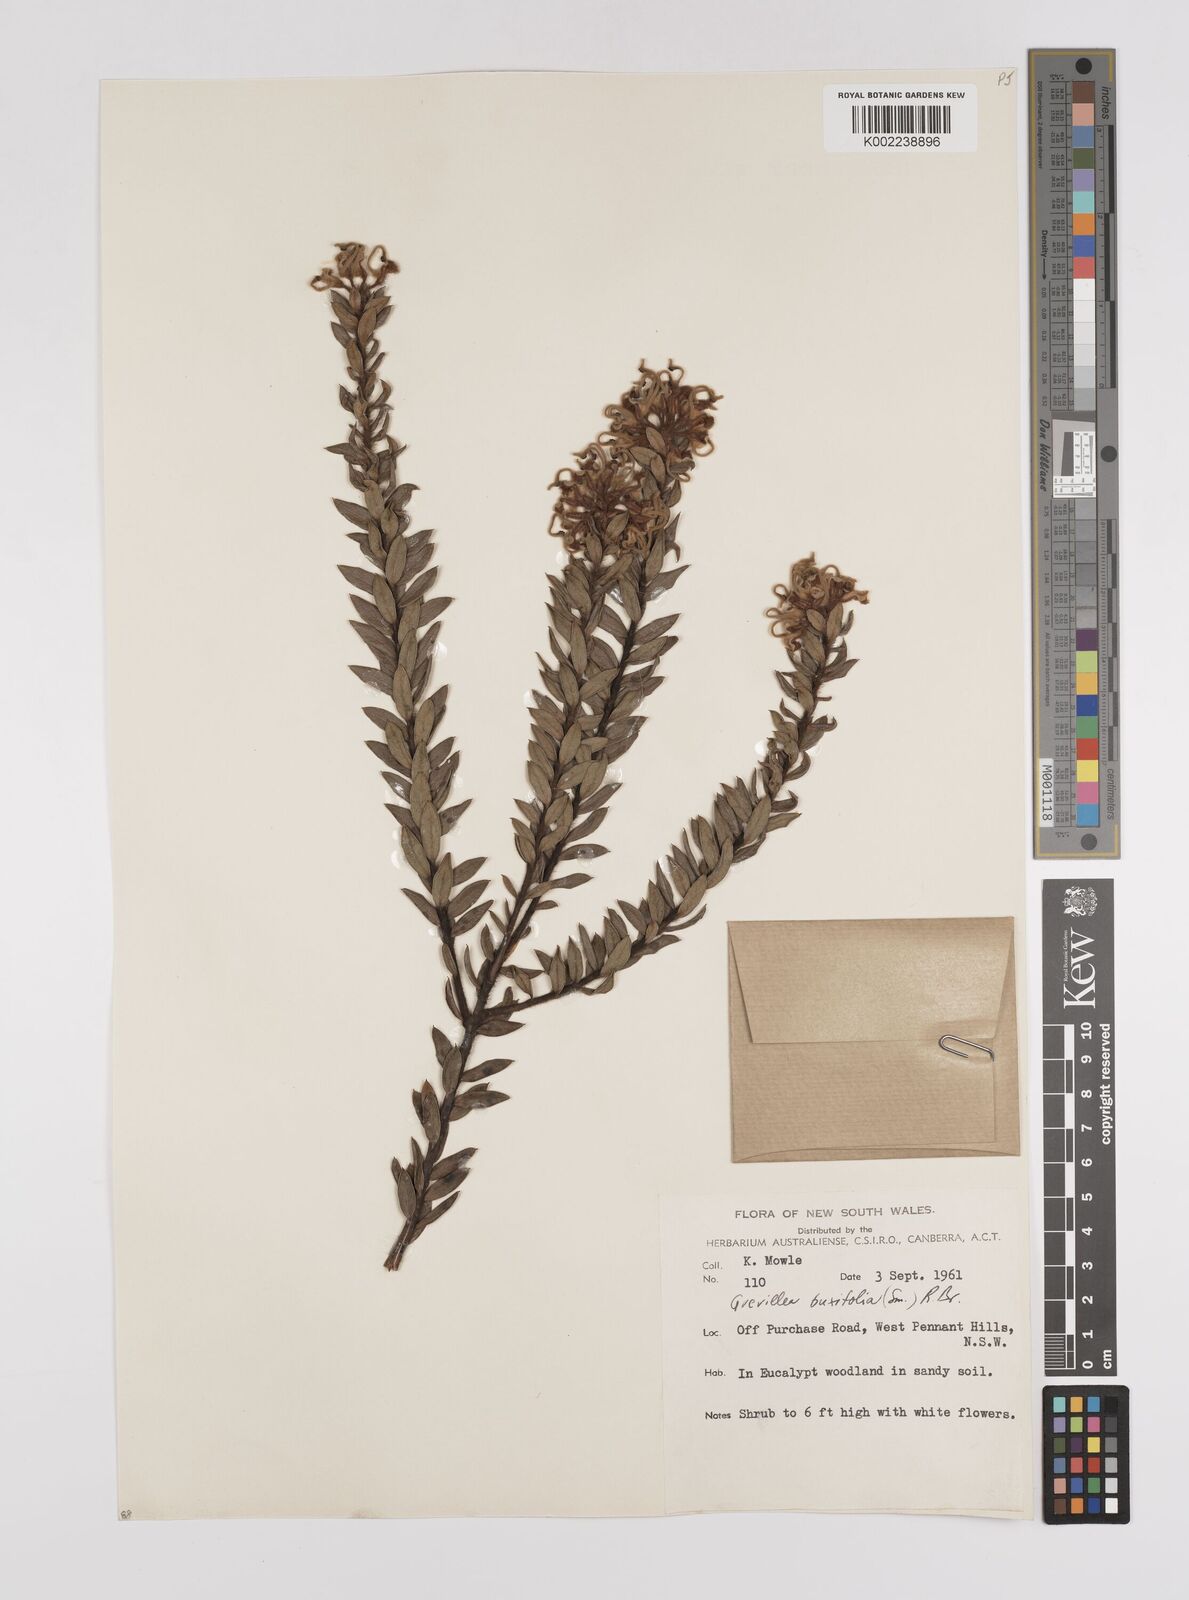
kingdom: Plantae
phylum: Tracheophyta
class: Magnoliopsida
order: Proteales
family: Proteaceae
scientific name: Proteaceae
